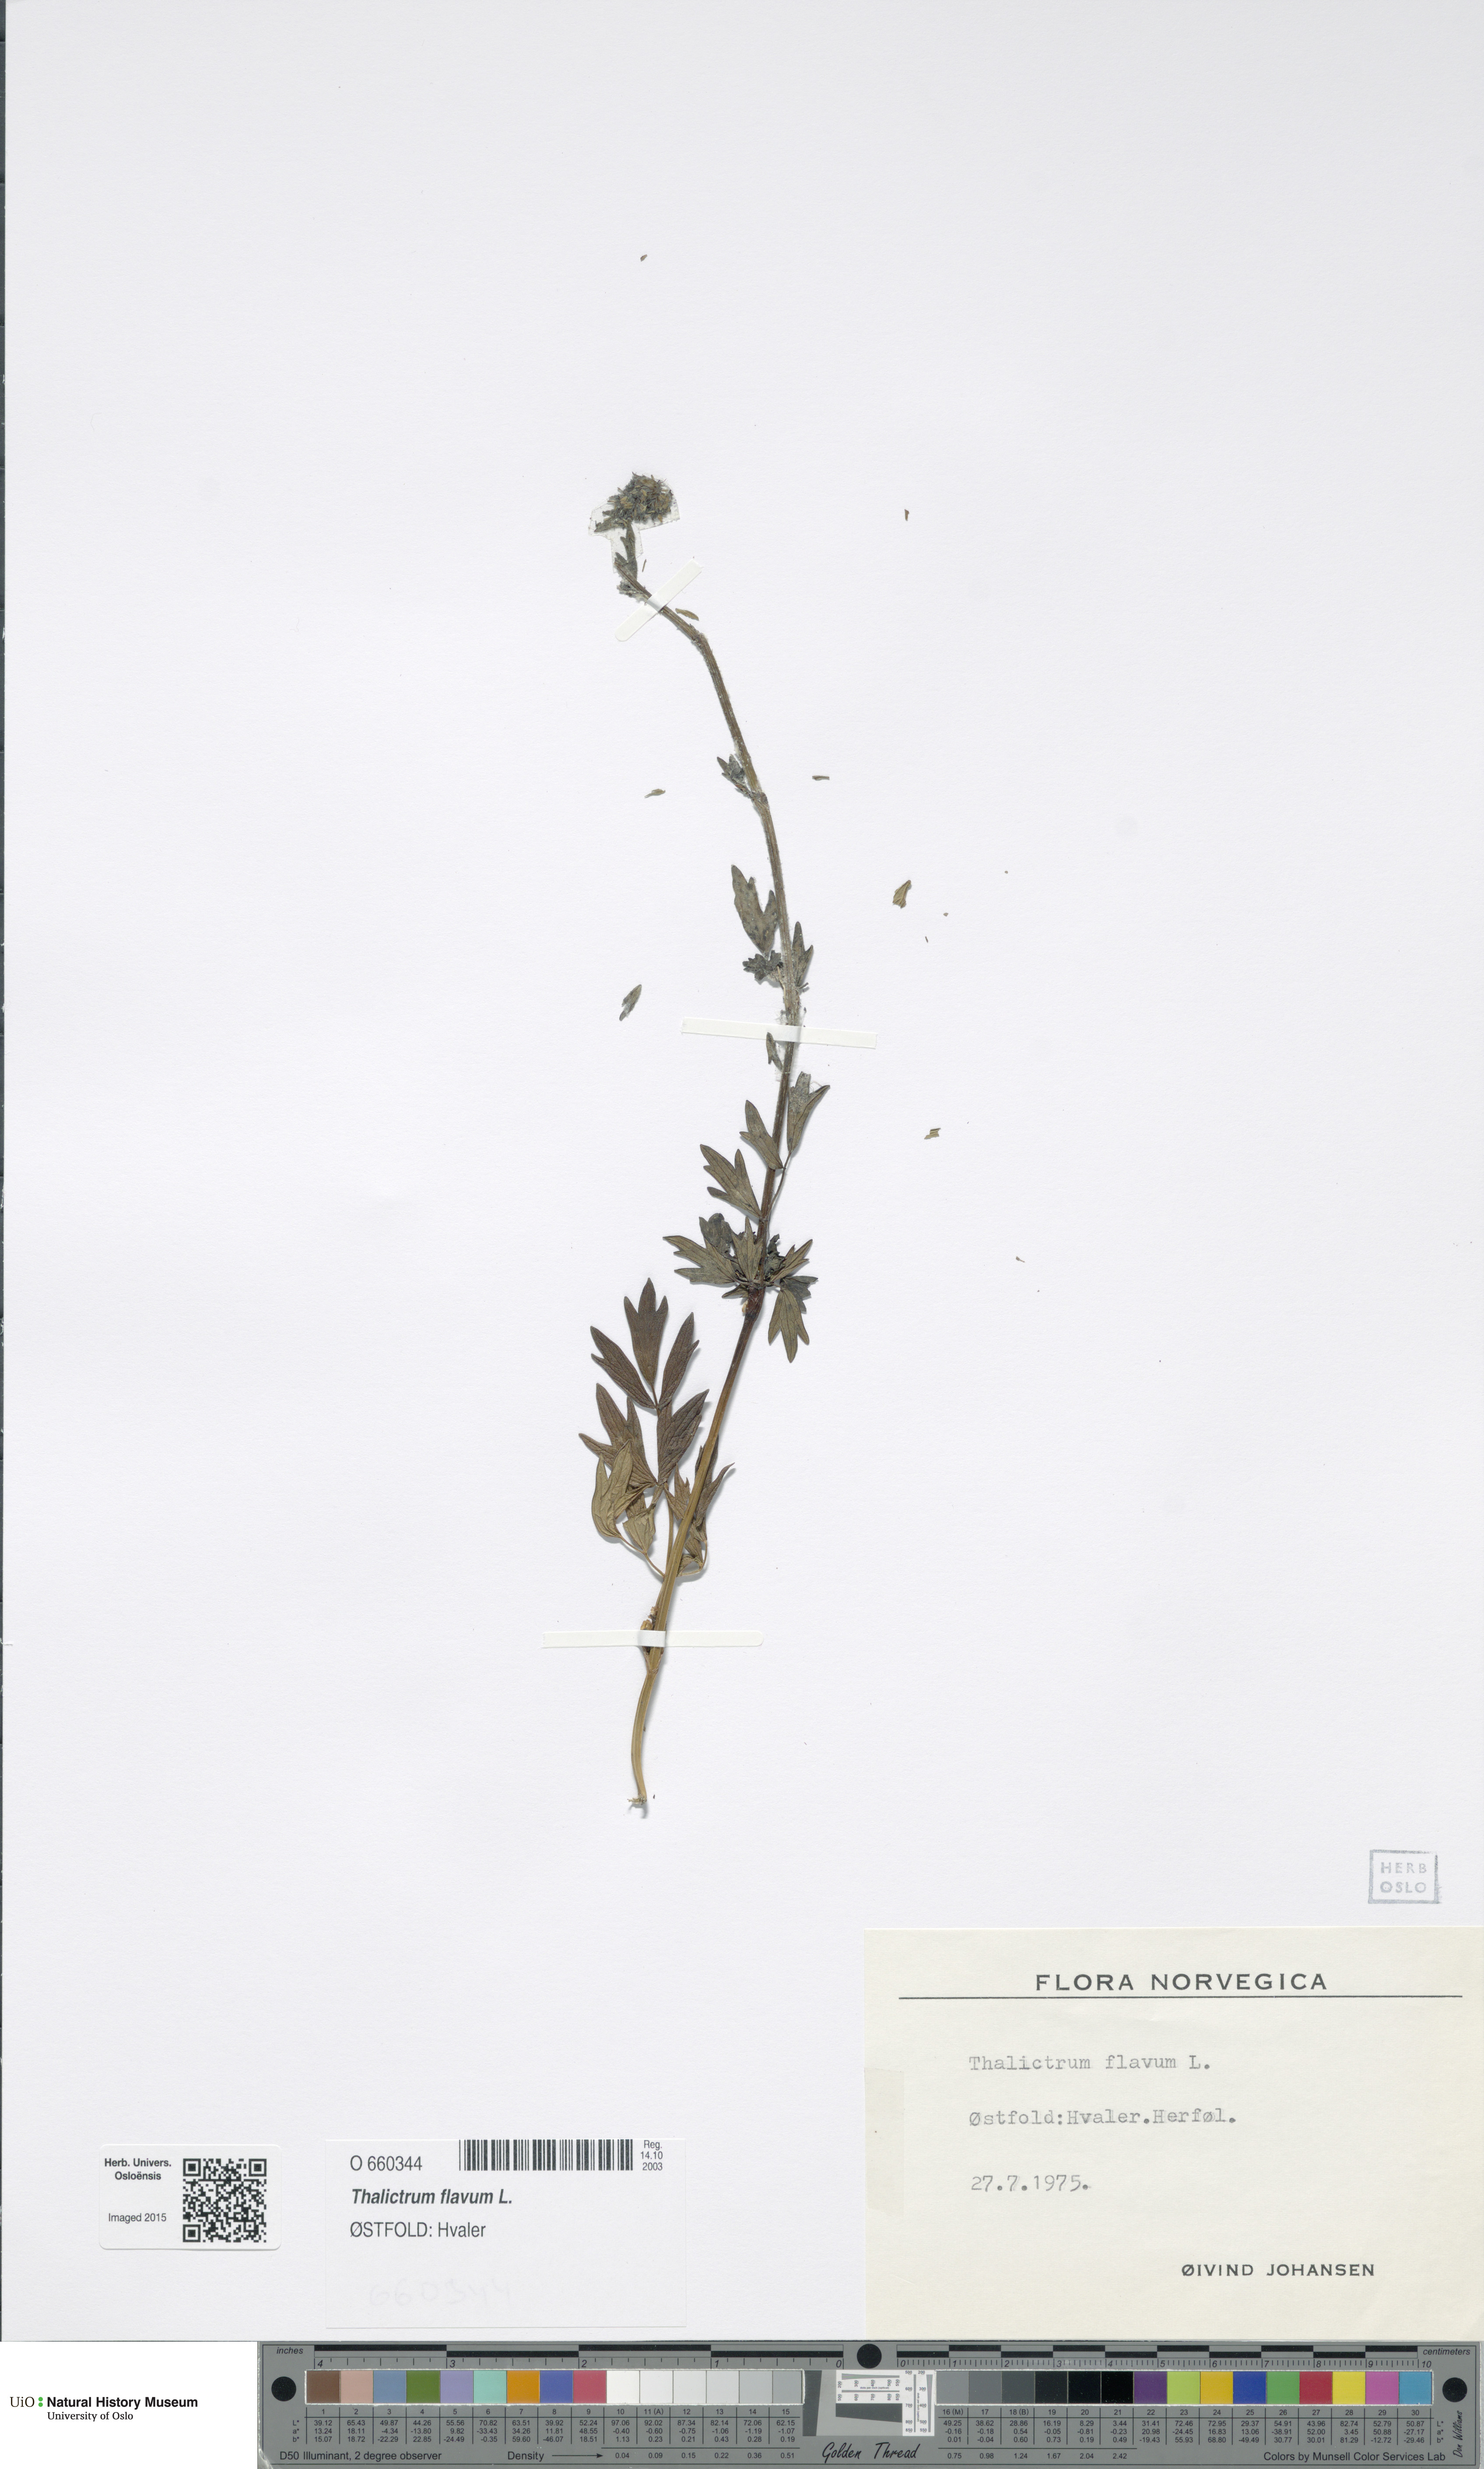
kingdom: Plantae
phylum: Tracheophyta
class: Magnoliopsida
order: Ranunculales
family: Ranunculaceae
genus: Thalictrum
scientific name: Thalictrum flavum
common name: Common meadow-rue
